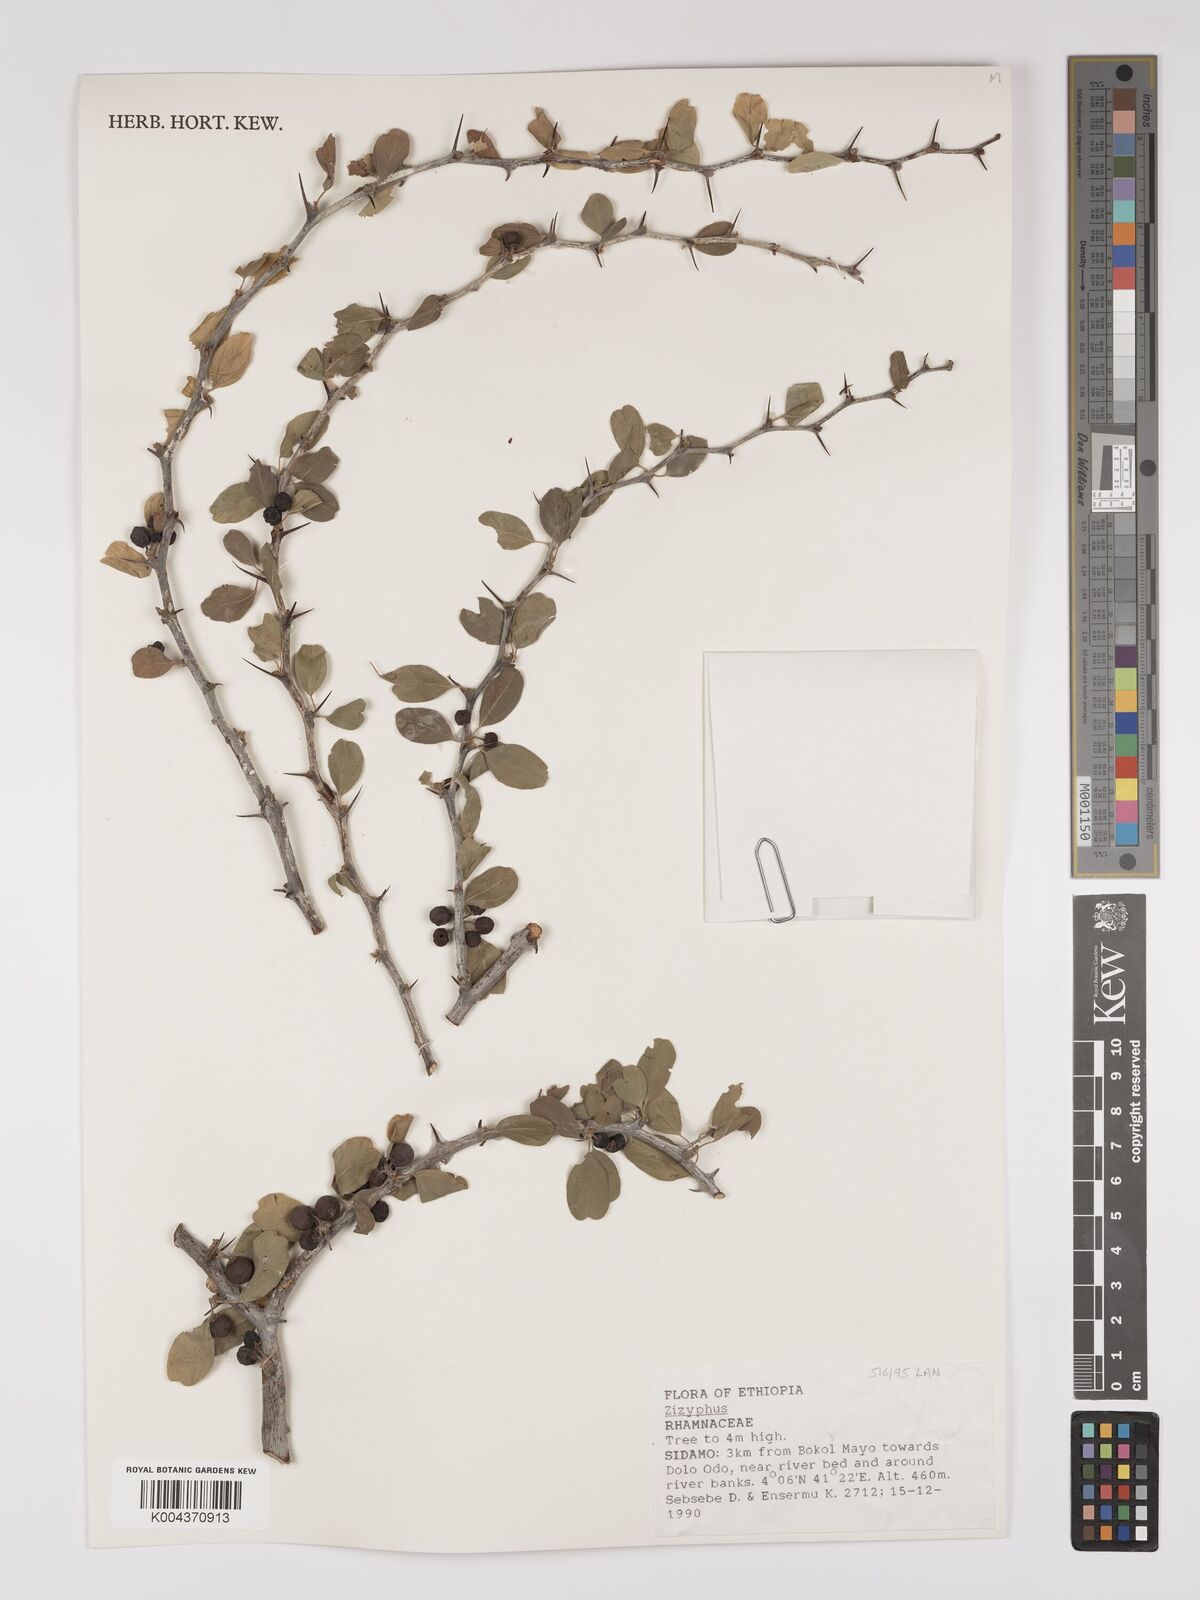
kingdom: Plantae
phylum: Tracheophyta
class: Magnoliopsida
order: Rosales
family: Rhamnaceae
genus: Ziziphus
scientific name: Ziziphus
